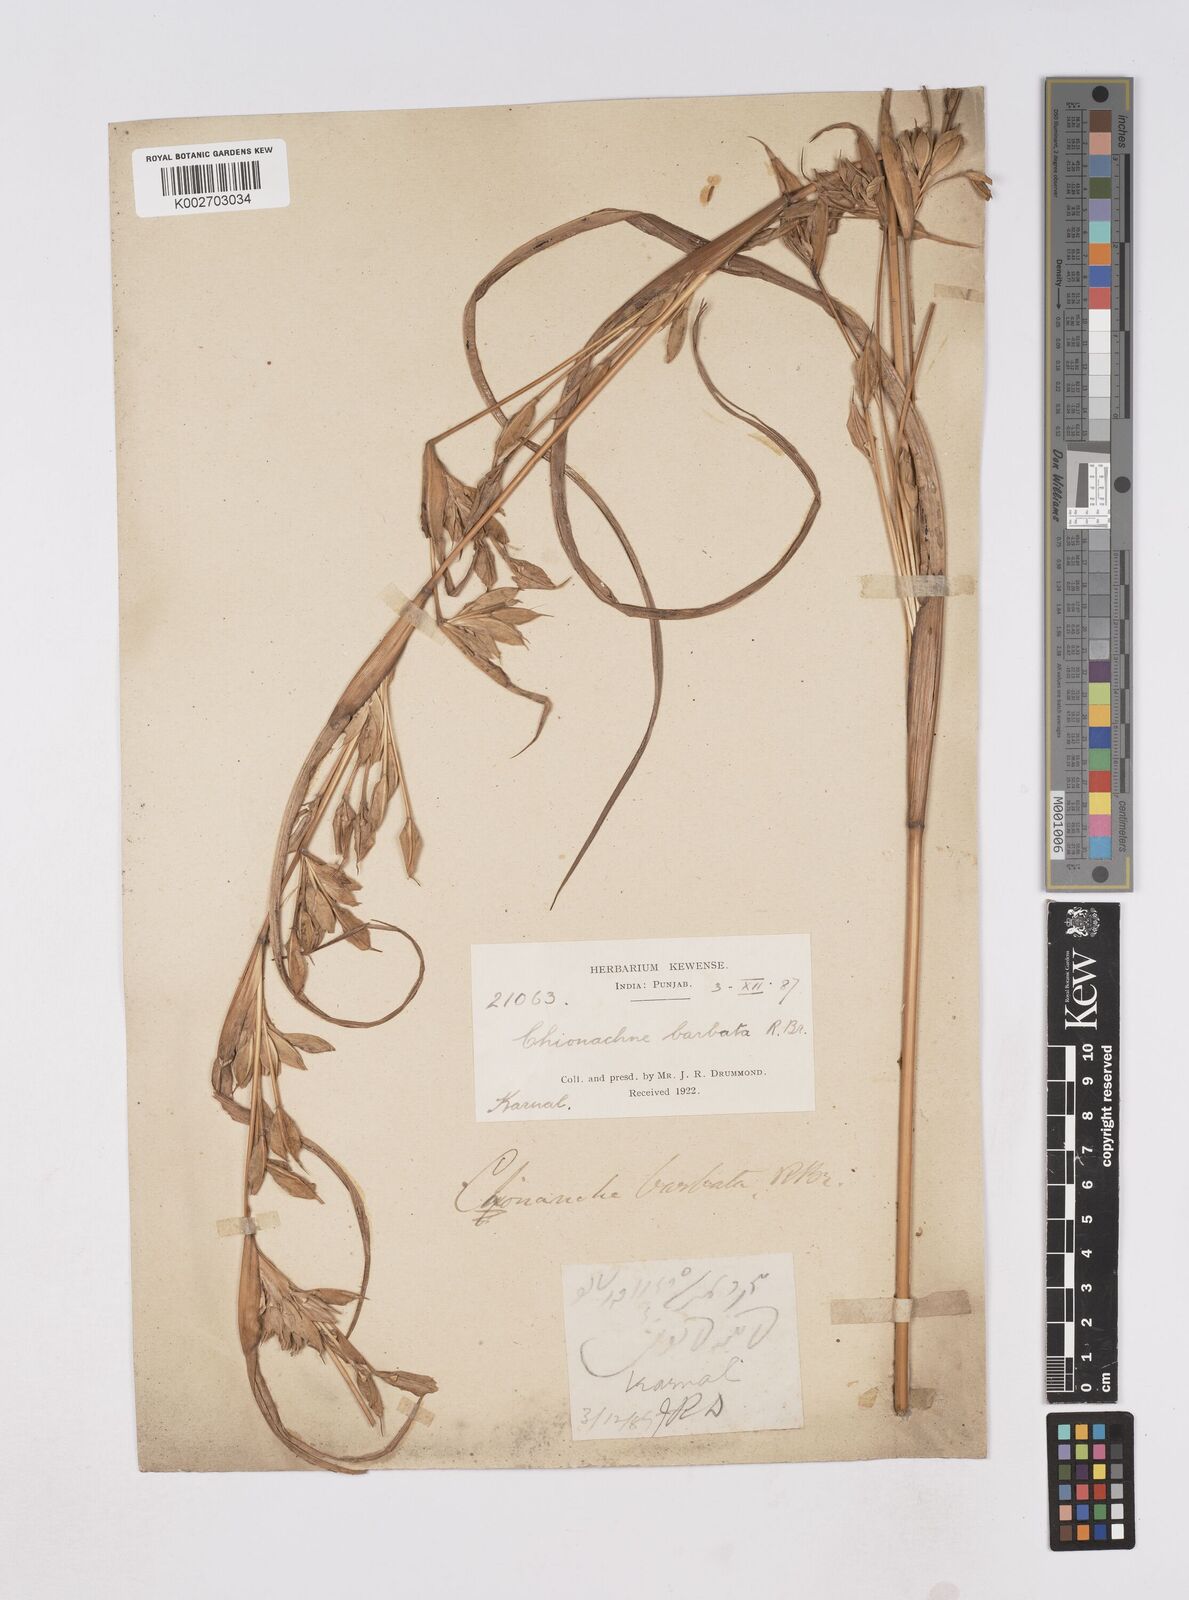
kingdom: Plantae
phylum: Tracheophyta
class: Liliopsida
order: Poales
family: Poaceae
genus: Polytoca
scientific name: Polytoca gigantea
